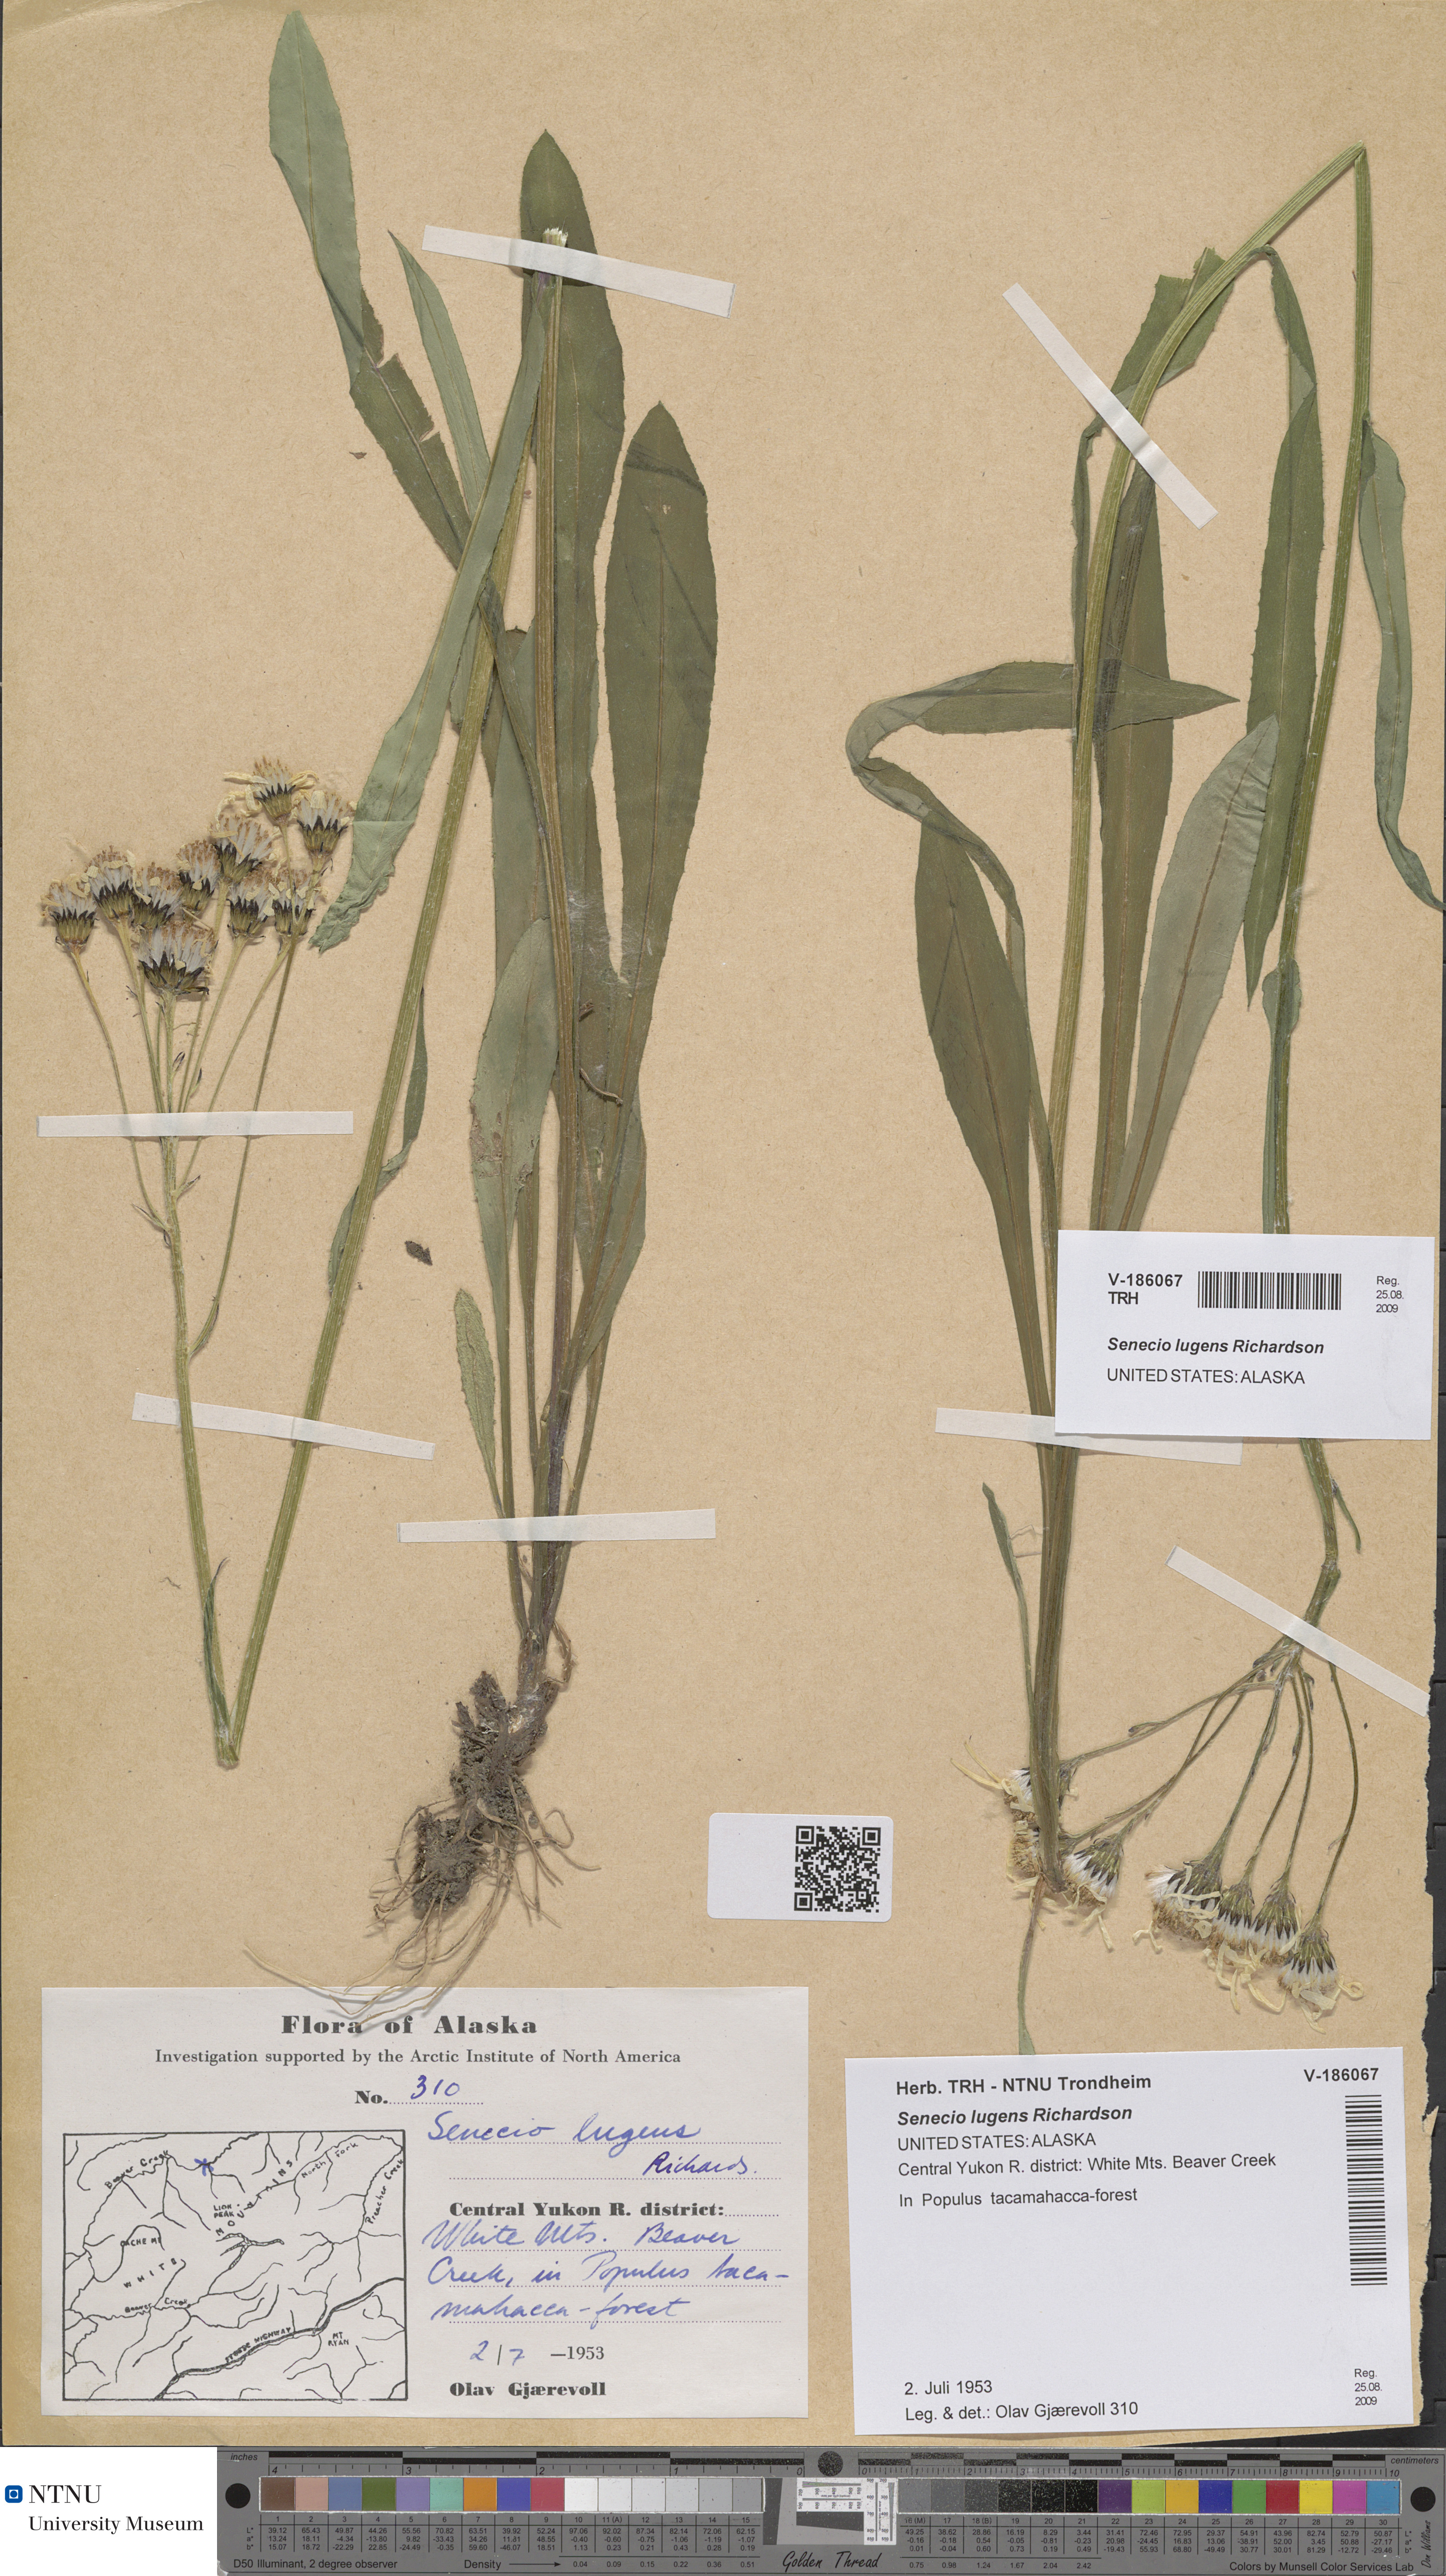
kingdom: Plantae
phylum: Tracheophyta
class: Magnoliopsida
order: Asterales
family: Asteraceae
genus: Senecio
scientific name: Senecio lugens
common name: Black-tip groundsel
